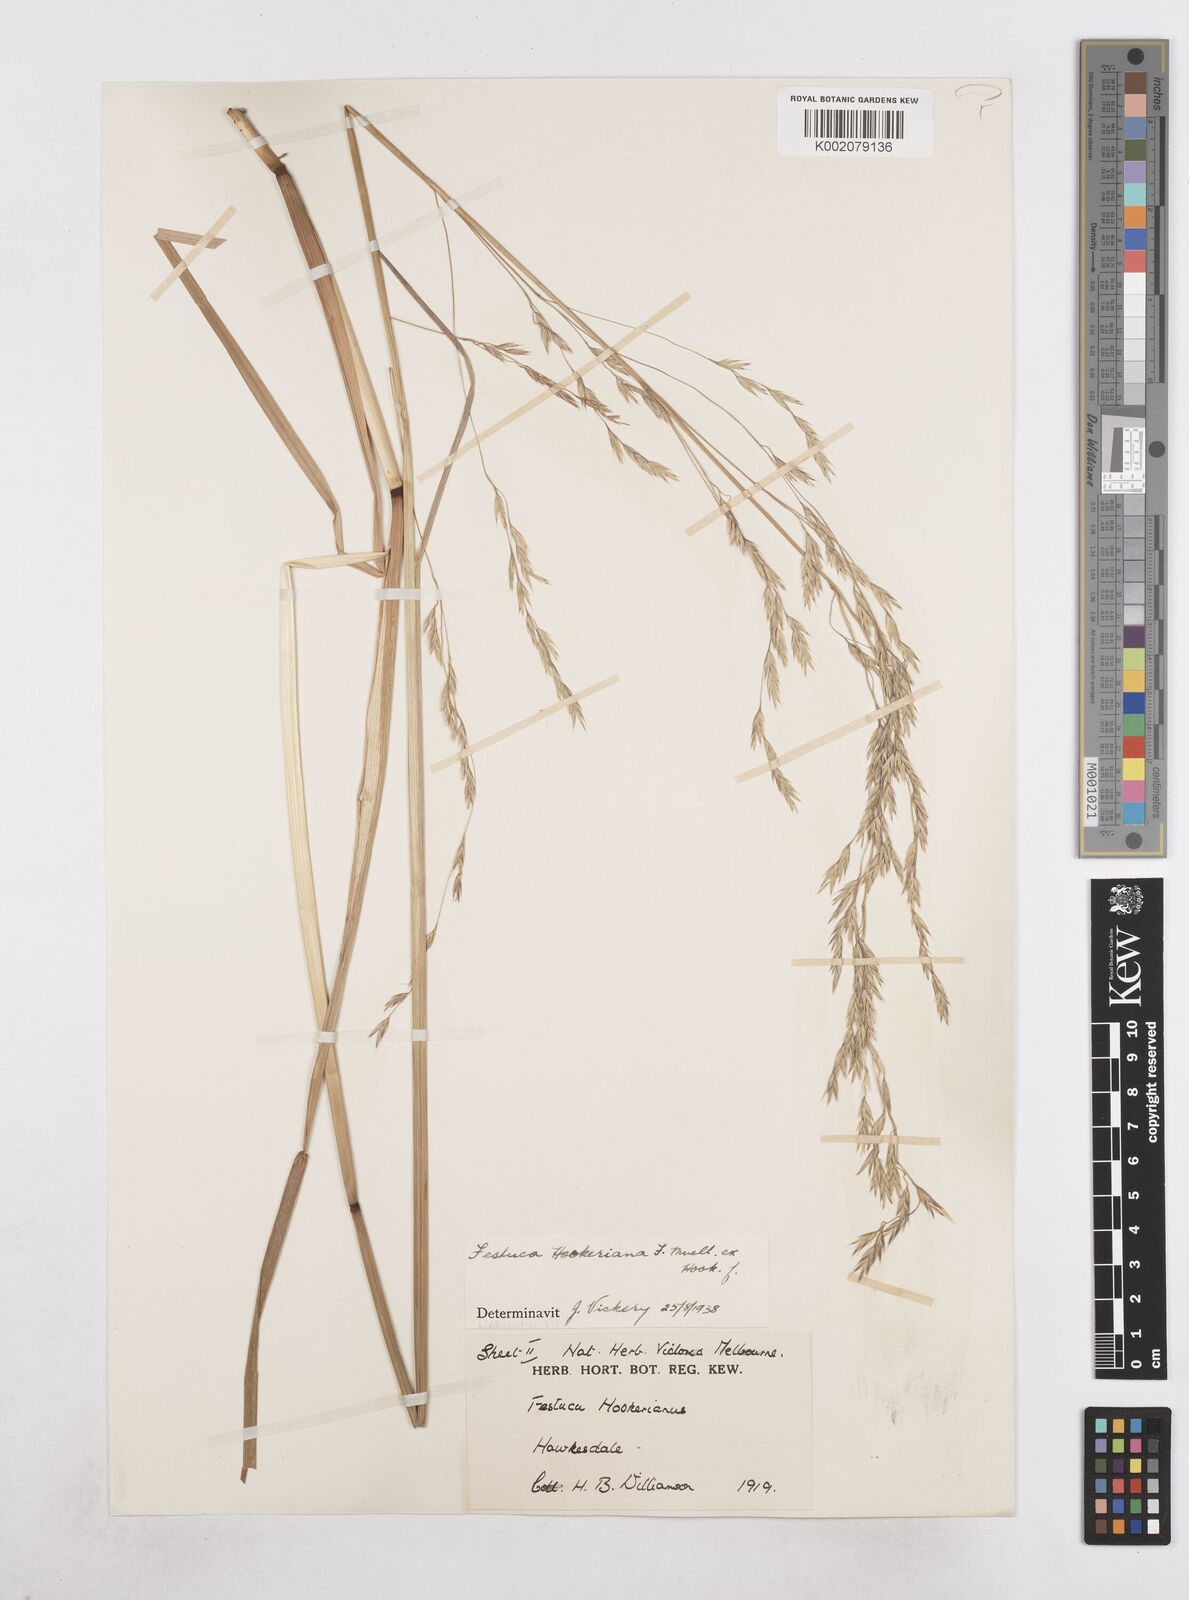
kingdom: Plantae
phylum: Tracheophyta
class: Liliopsida
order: Poales
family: Poaceae
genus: Hookerochloa
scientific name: Hookerochloa hookeriana
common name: Hooker's-fescue
